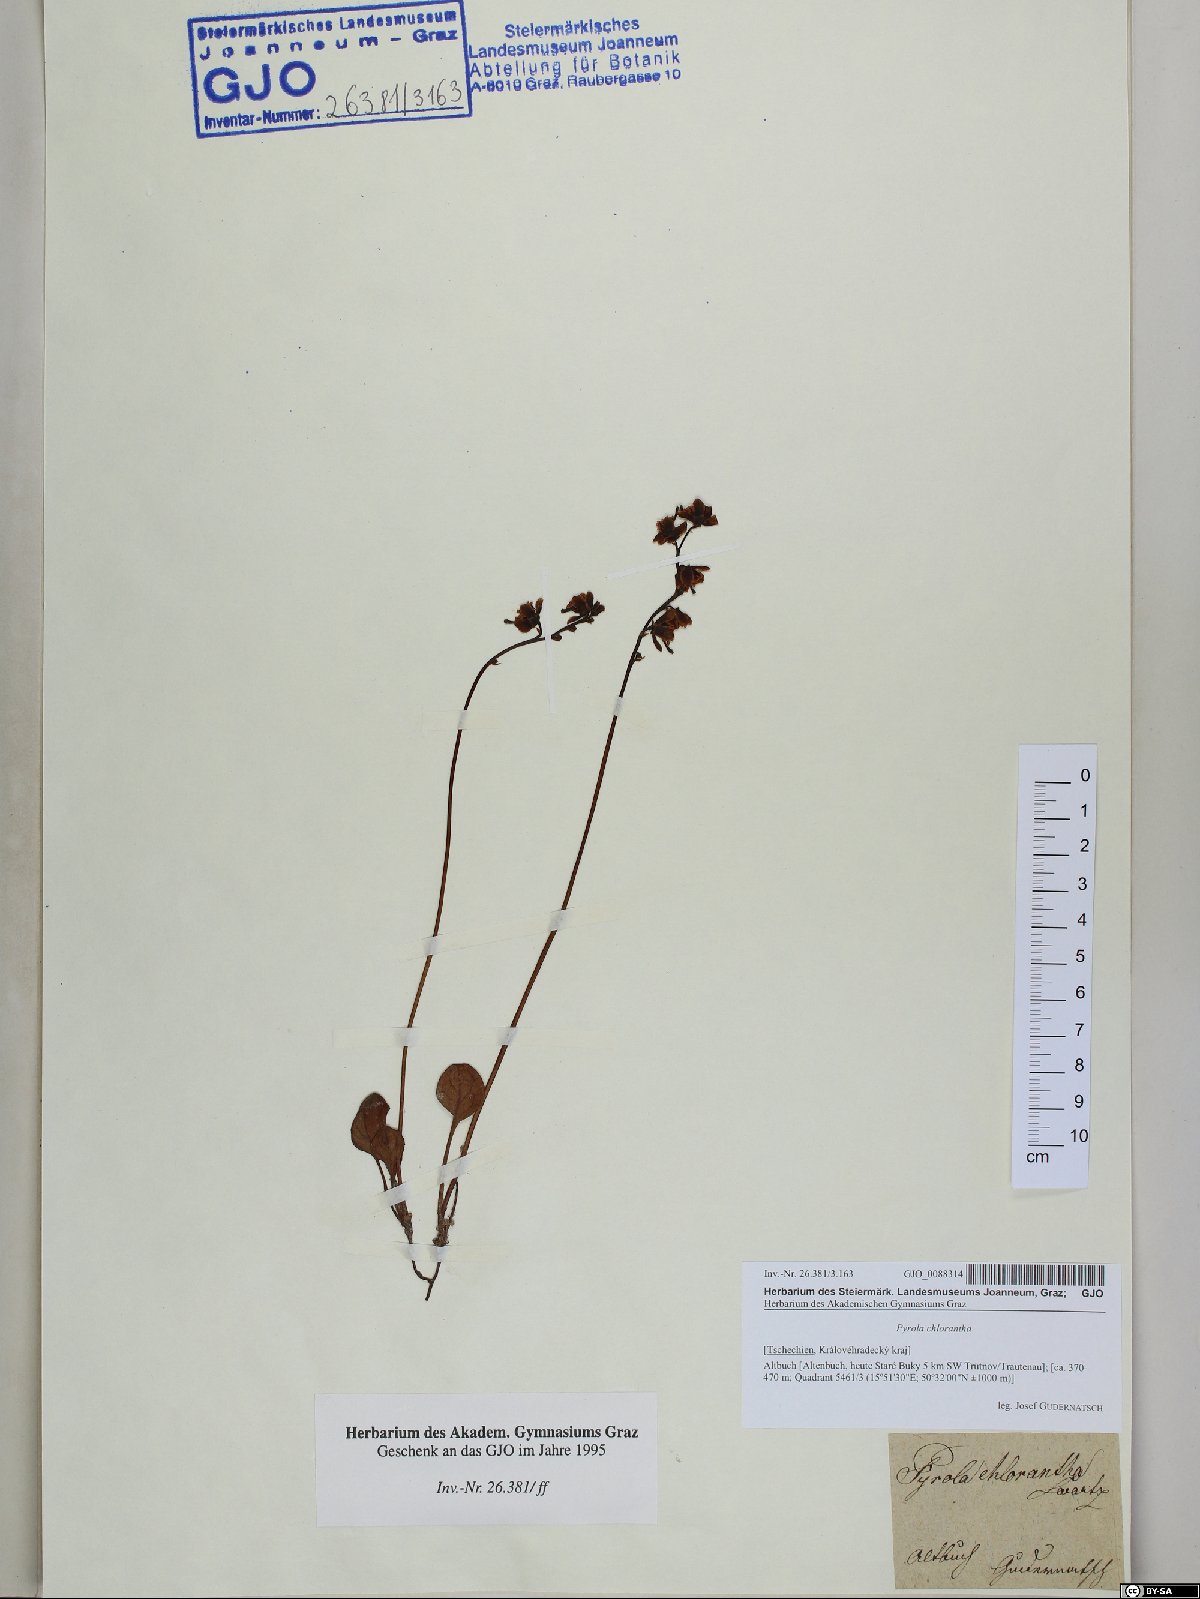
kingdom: Plantae
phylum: Tracheophyta
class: Magnoliopsida
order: Ericales
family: Ericaceae
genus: Pyrola
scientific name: Pyrola chlorantha
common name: Green wintergreen
